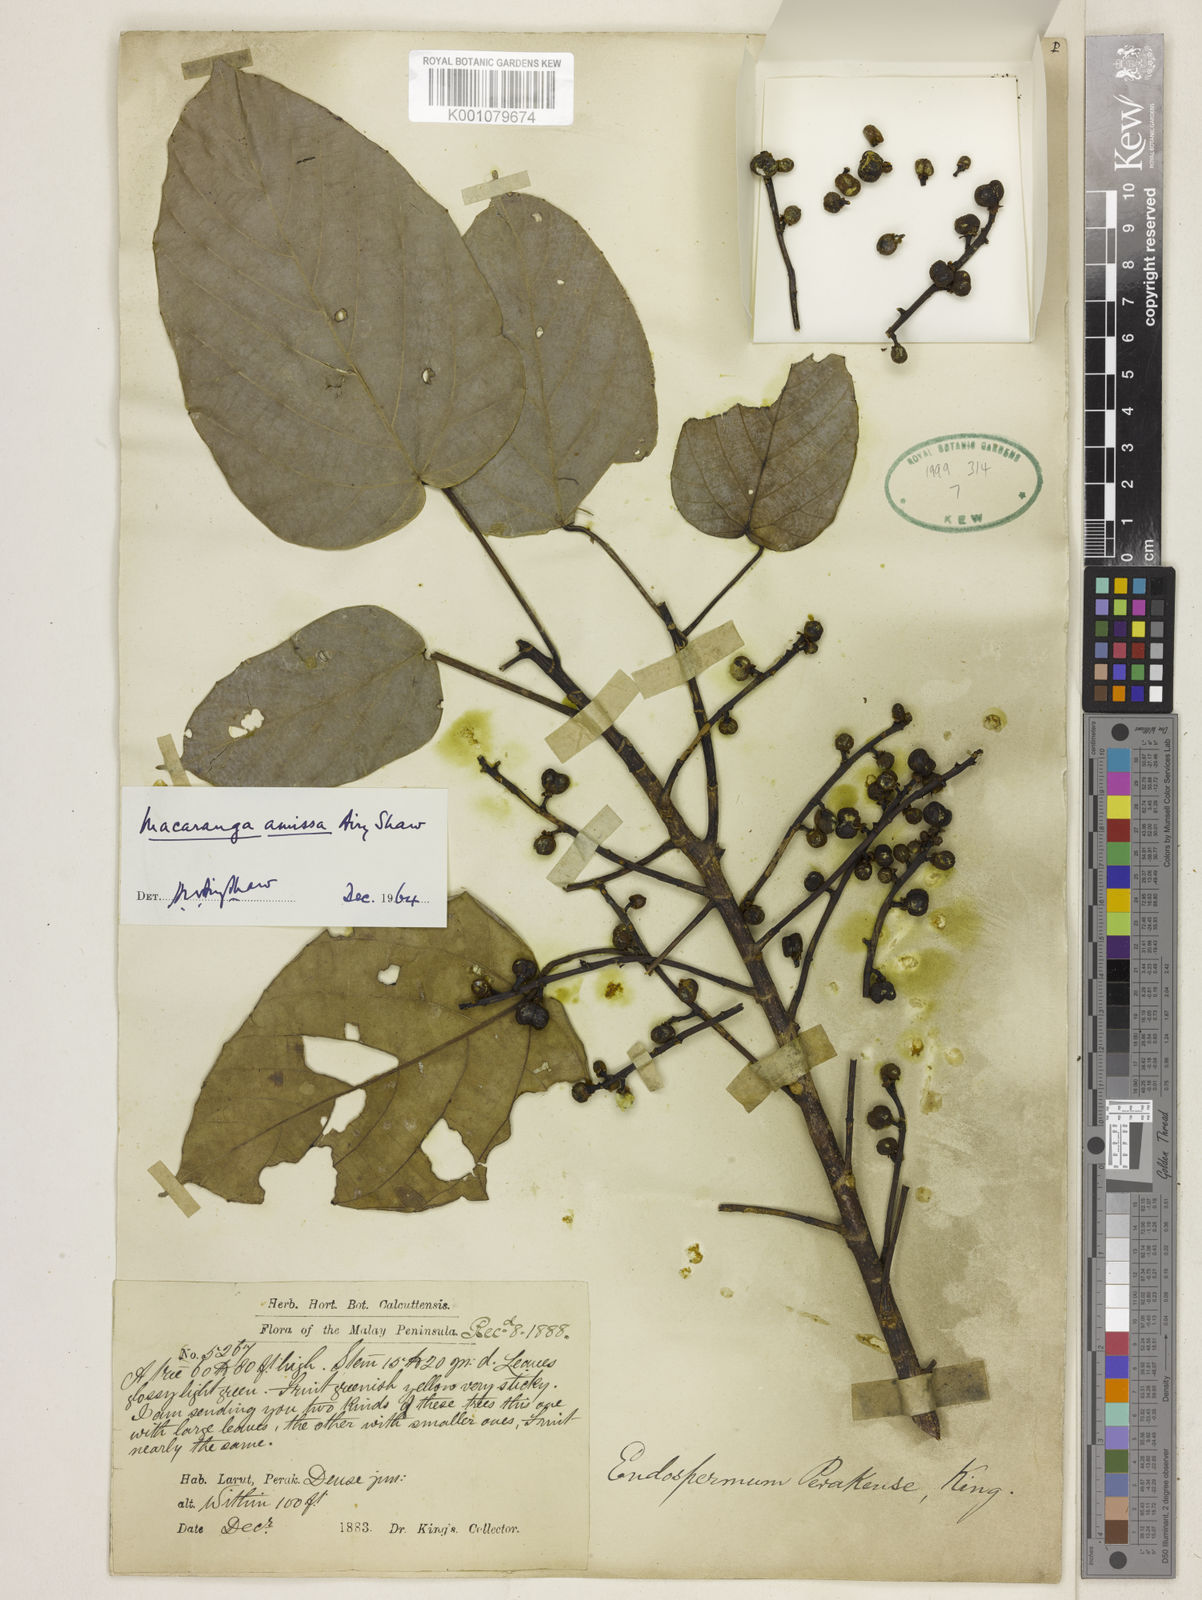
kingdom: Plantae
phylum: Tracheophyta
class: Magnoliopsida
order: Malpighiales
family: Euphorbiaceae
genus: Macaranga
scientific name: Macaranga amissa
